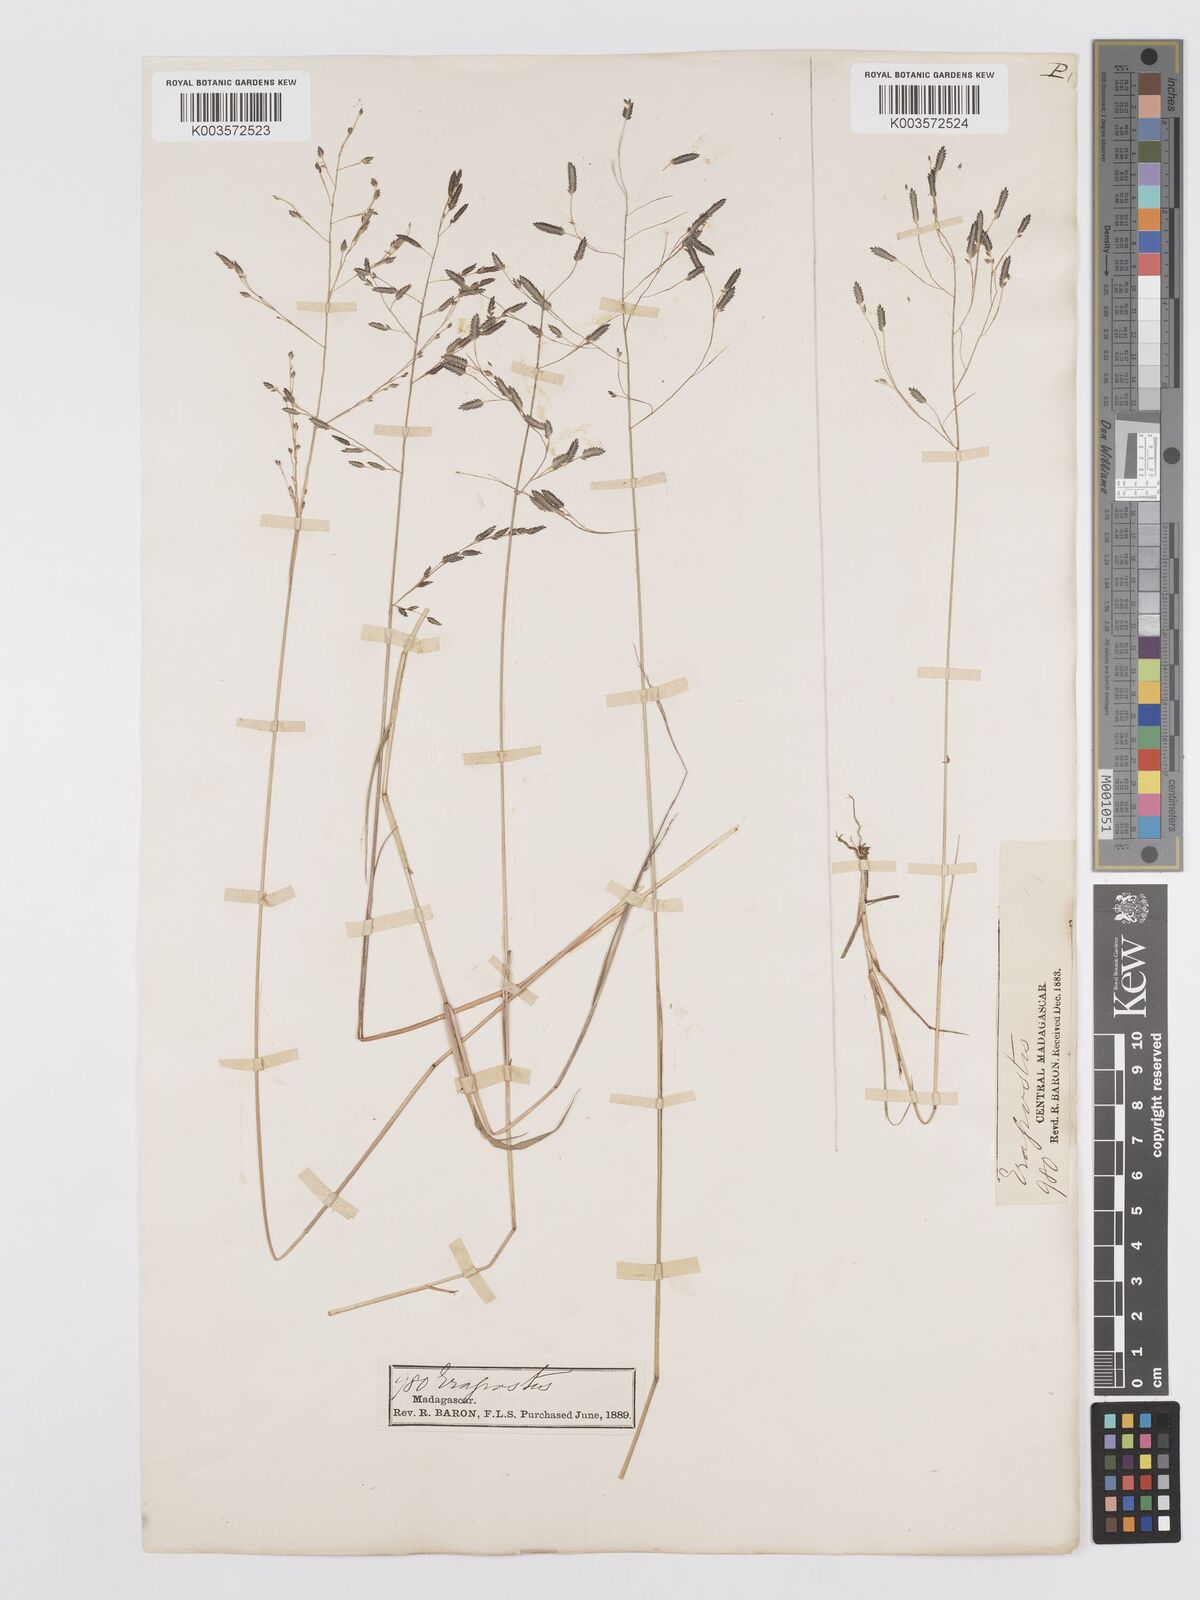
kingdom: Plantae
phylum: Tracheophyta
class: Liliopsida
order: Poales
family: Poaceae
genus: Eragrostis
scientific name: Eragrostis hildebrandtii
